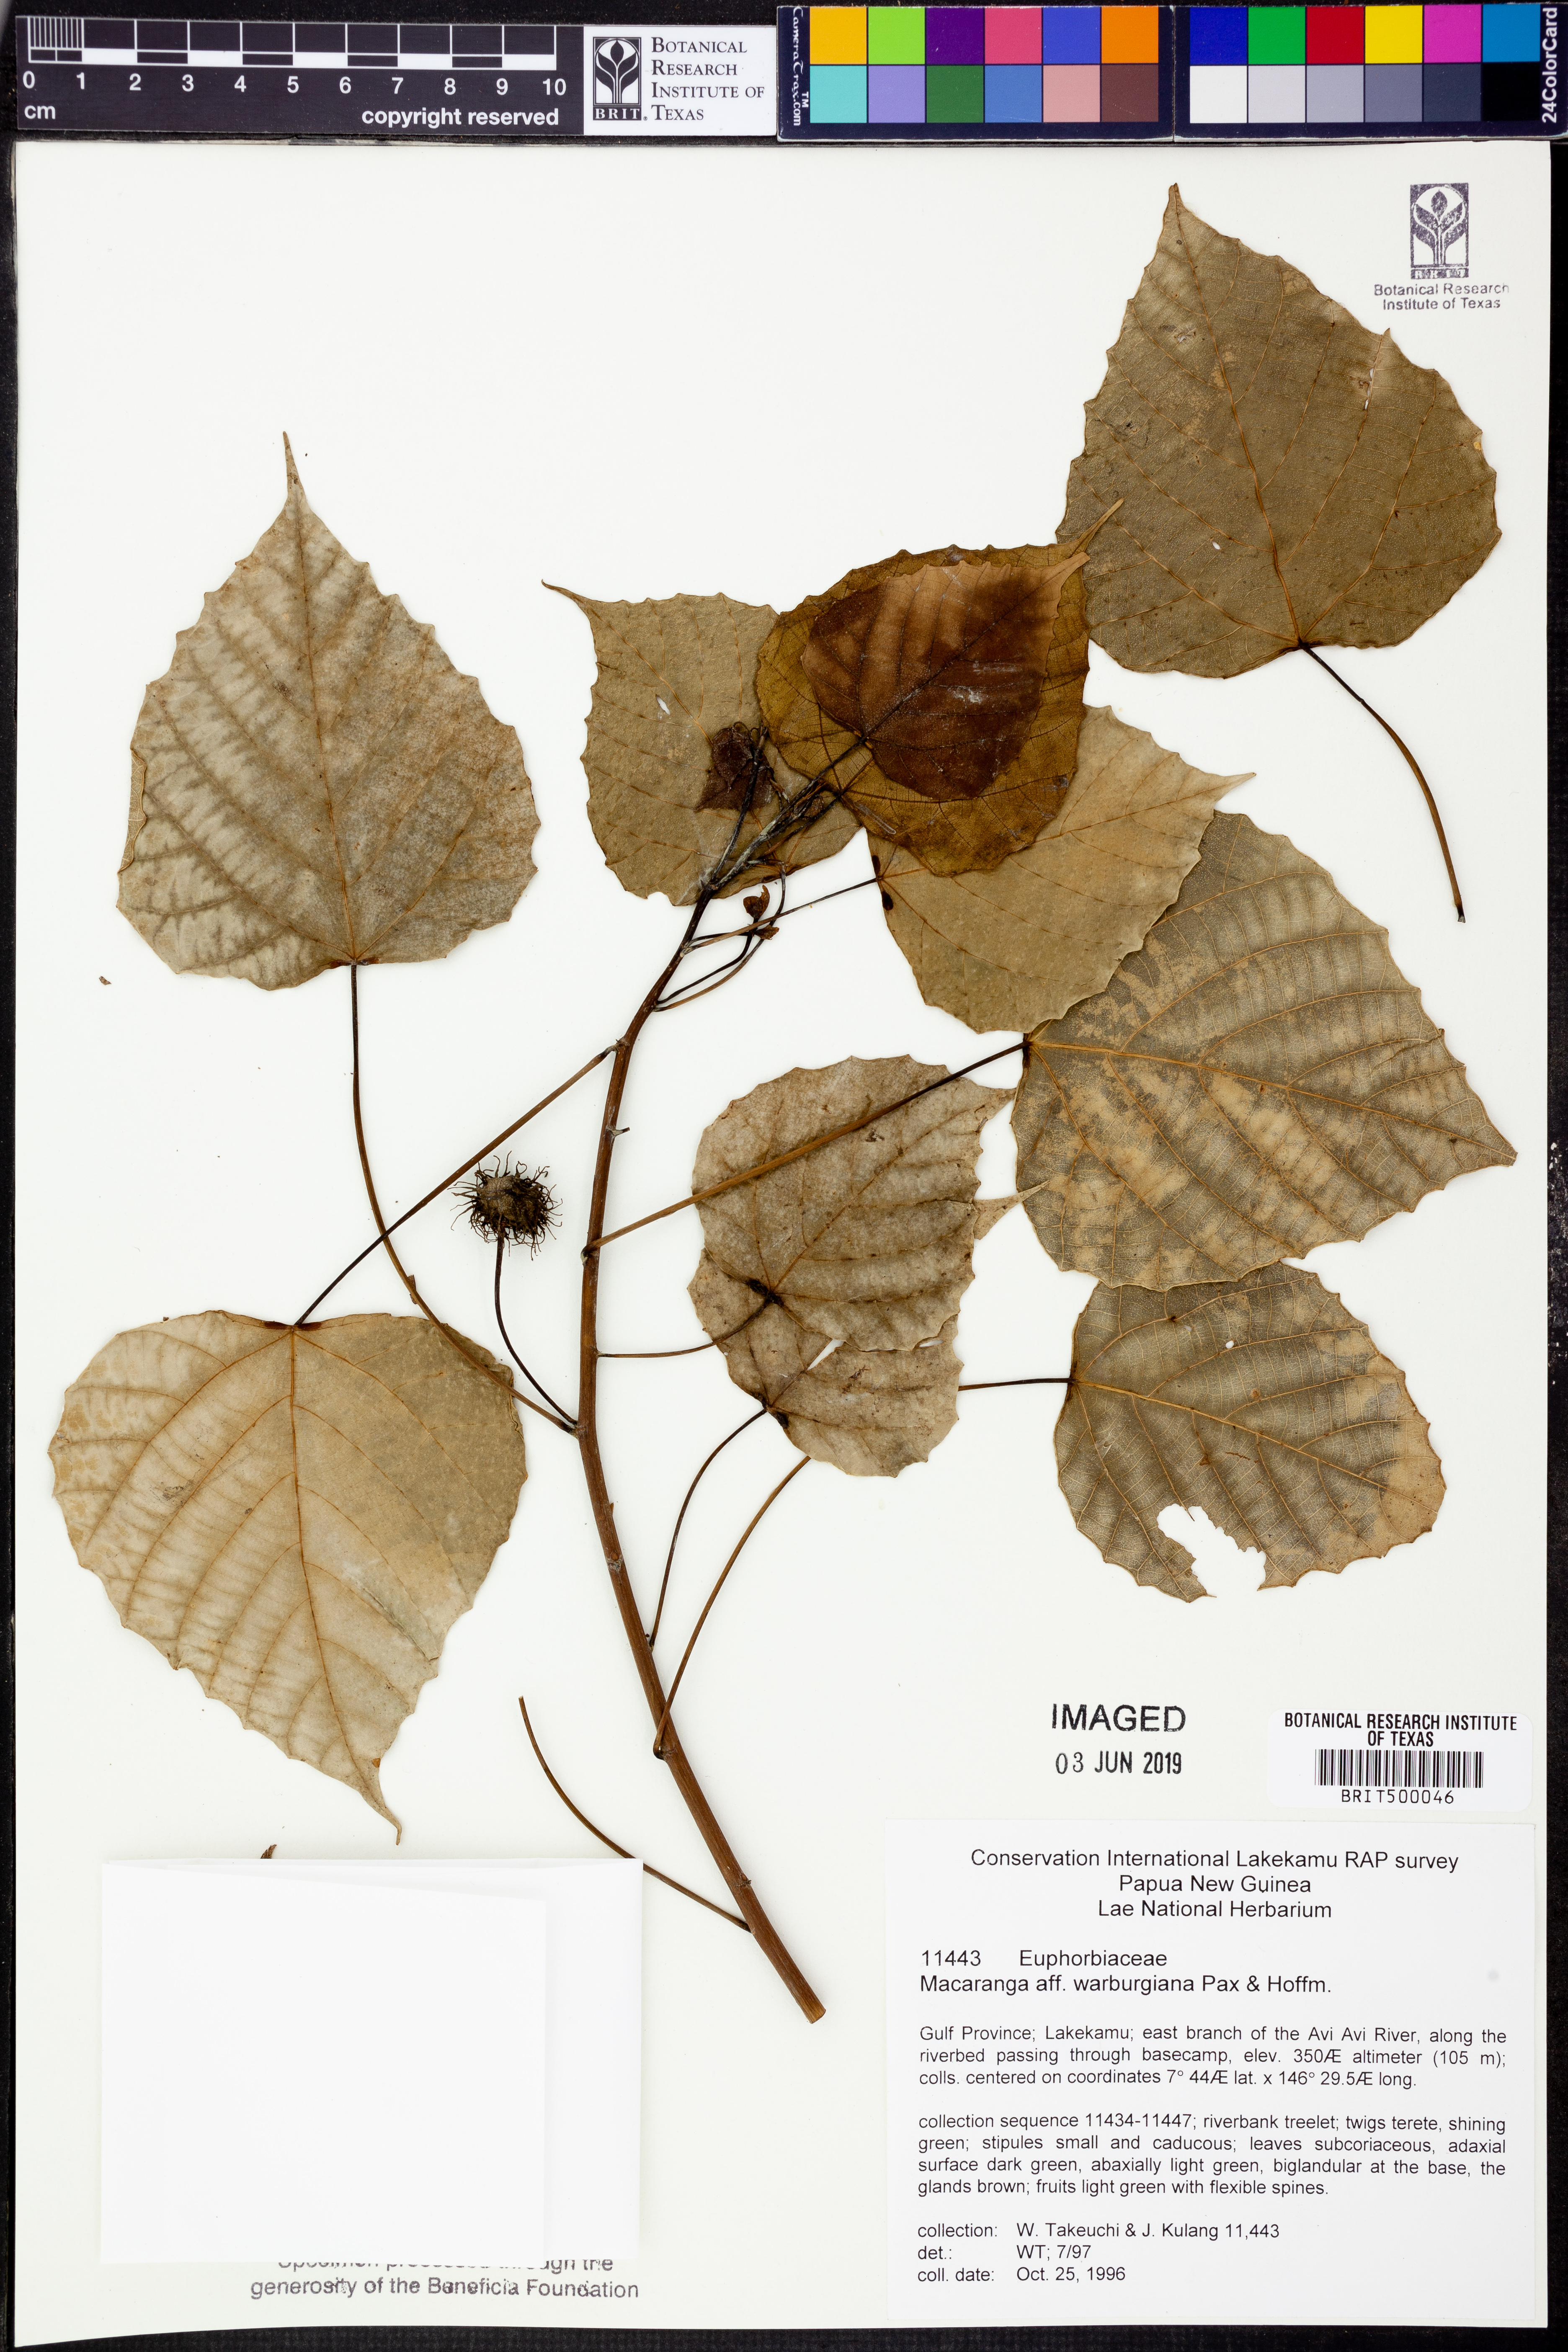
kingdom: Plantae
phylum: Tracheophyta
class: Magnoliopsida
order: Malpighiales
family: Euphorbiaceae
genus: Macaranga
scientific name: Macaranga warburgiana
